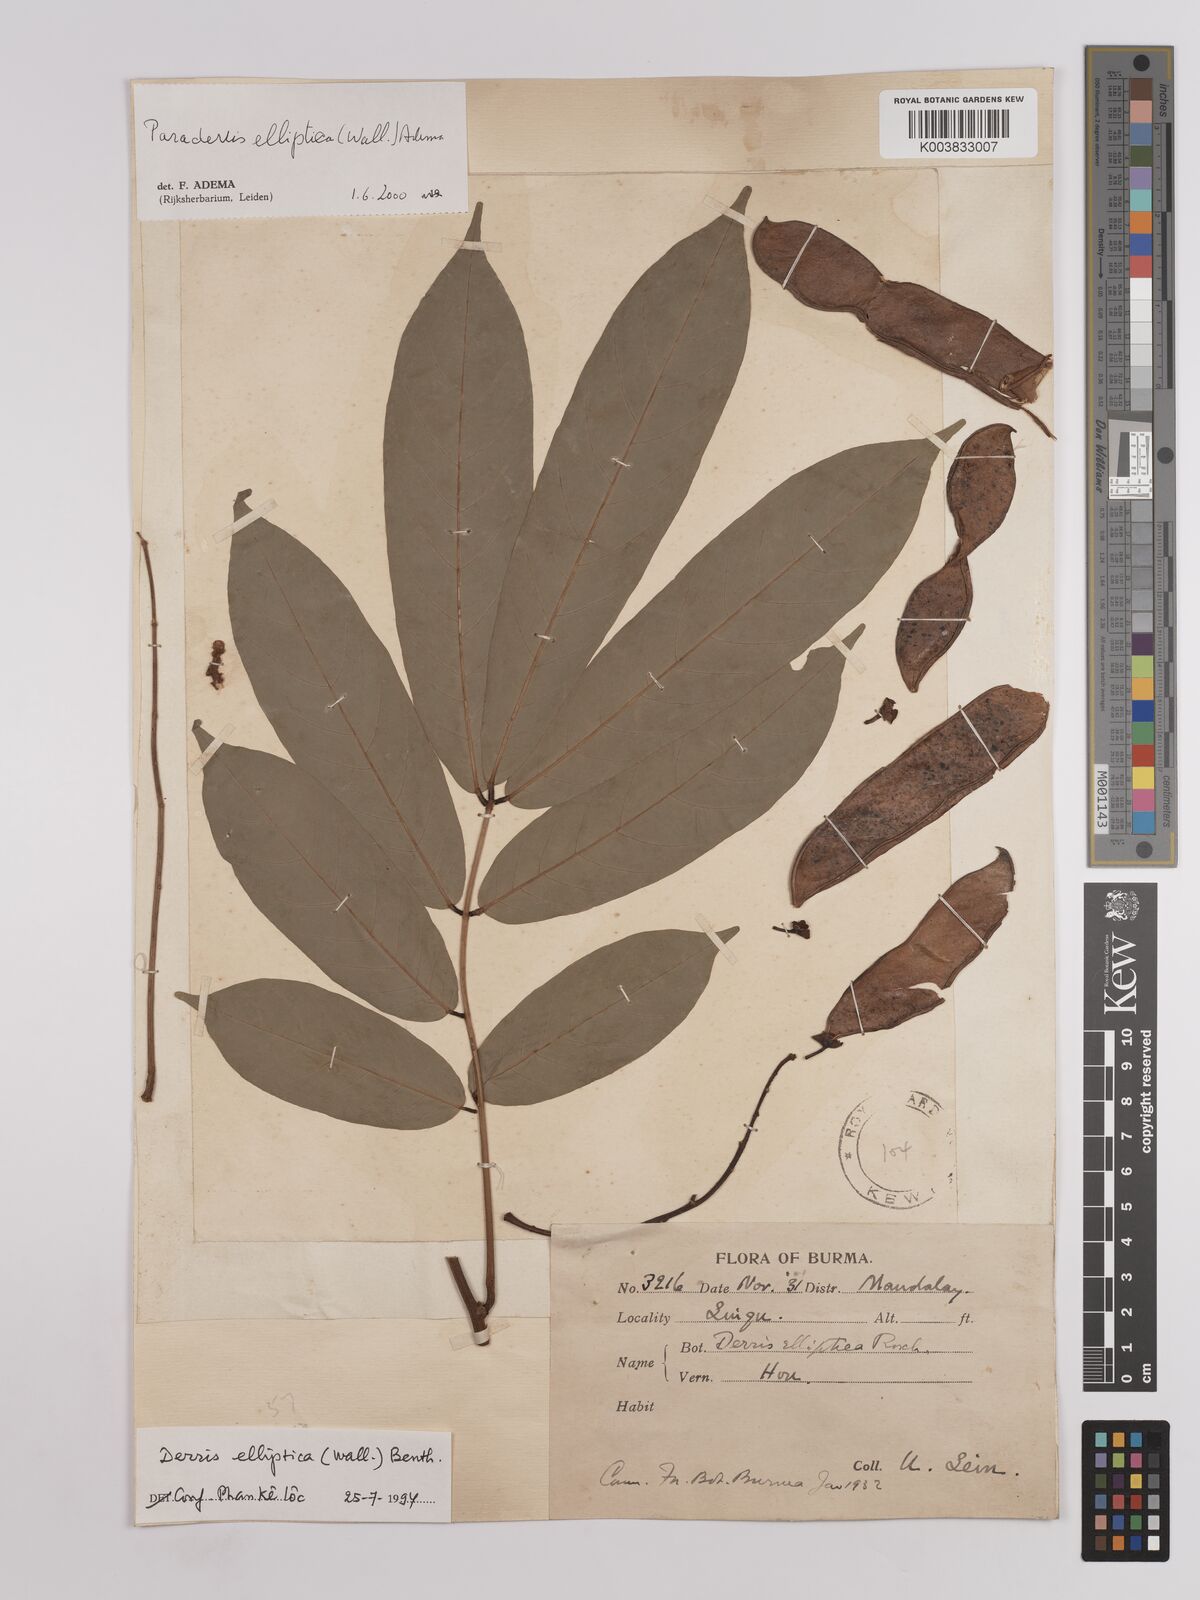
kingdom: Plantae
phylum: Tracheophyta
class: Magnoliopsida
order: Fabales
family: Fabaceae
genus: Derris
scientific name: Derris elliptica
